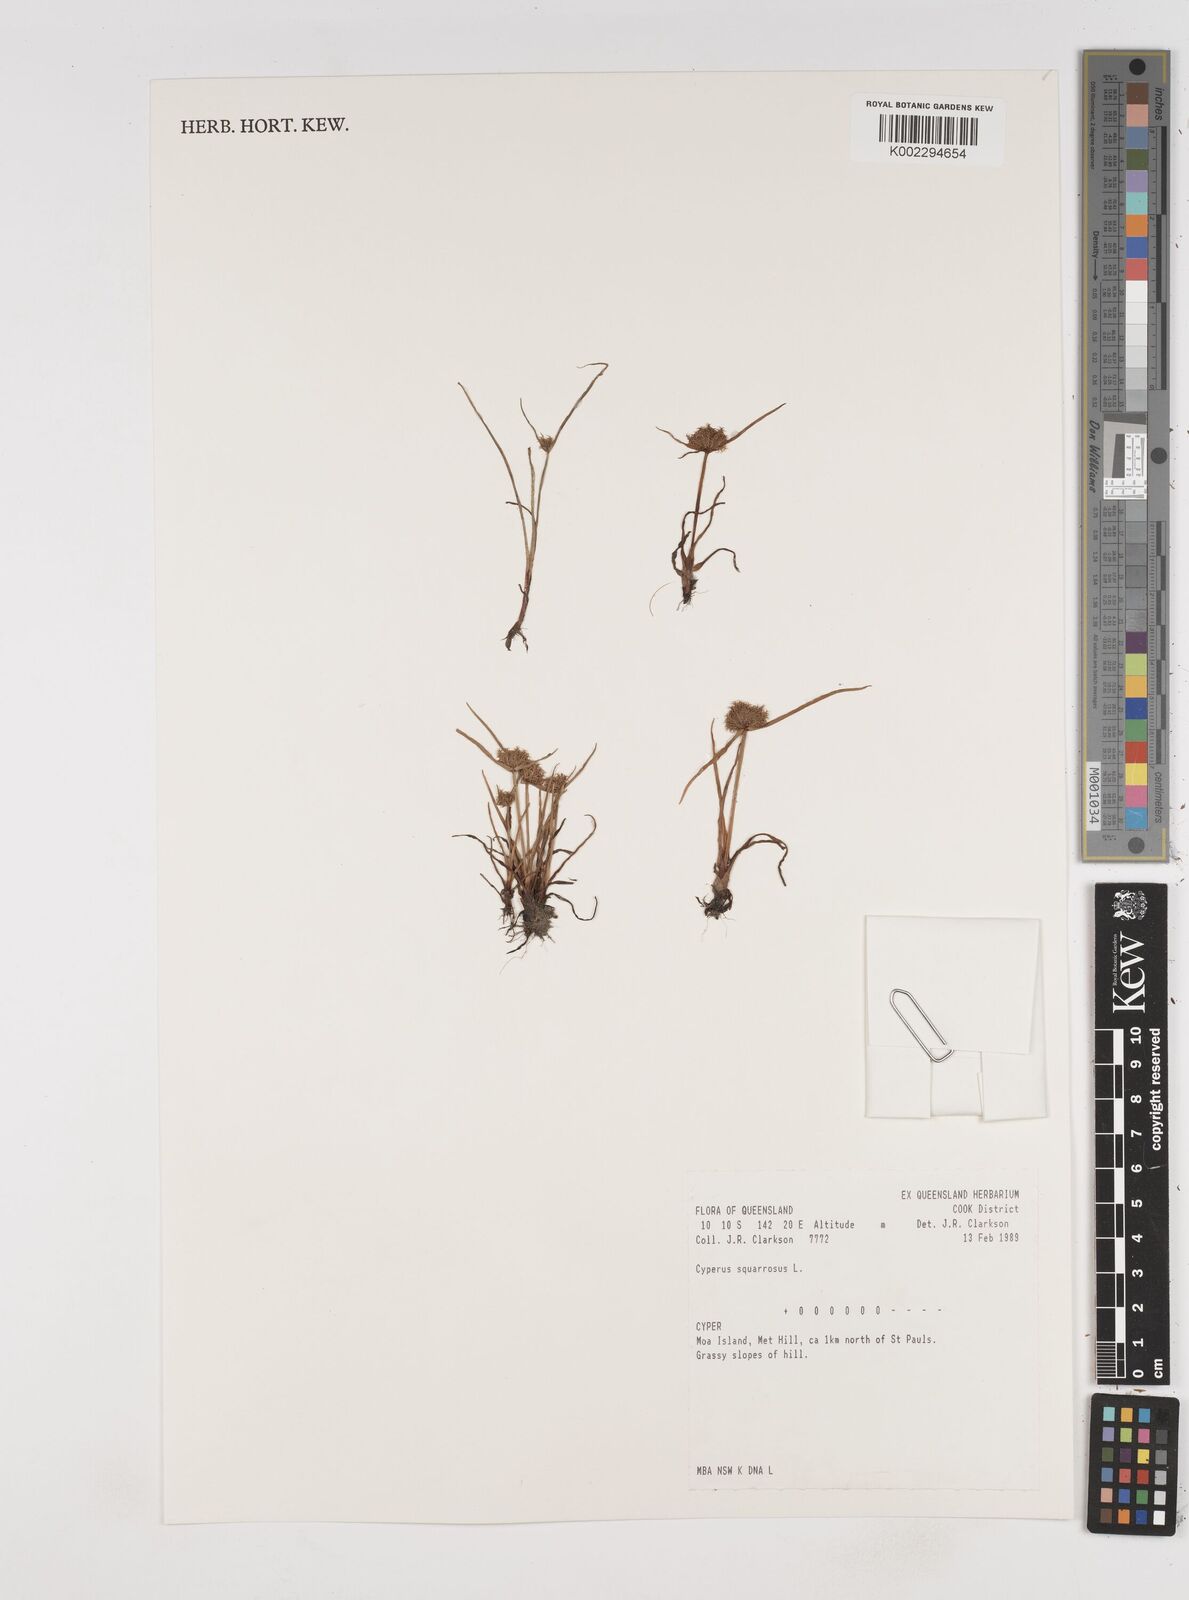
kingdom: Plantae
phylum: Tracheophyta
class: Liliopsida
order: Poales
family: Cyperaceae
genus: Cyperus
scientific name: Cyperus squarrosus
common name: Awned cyperus
